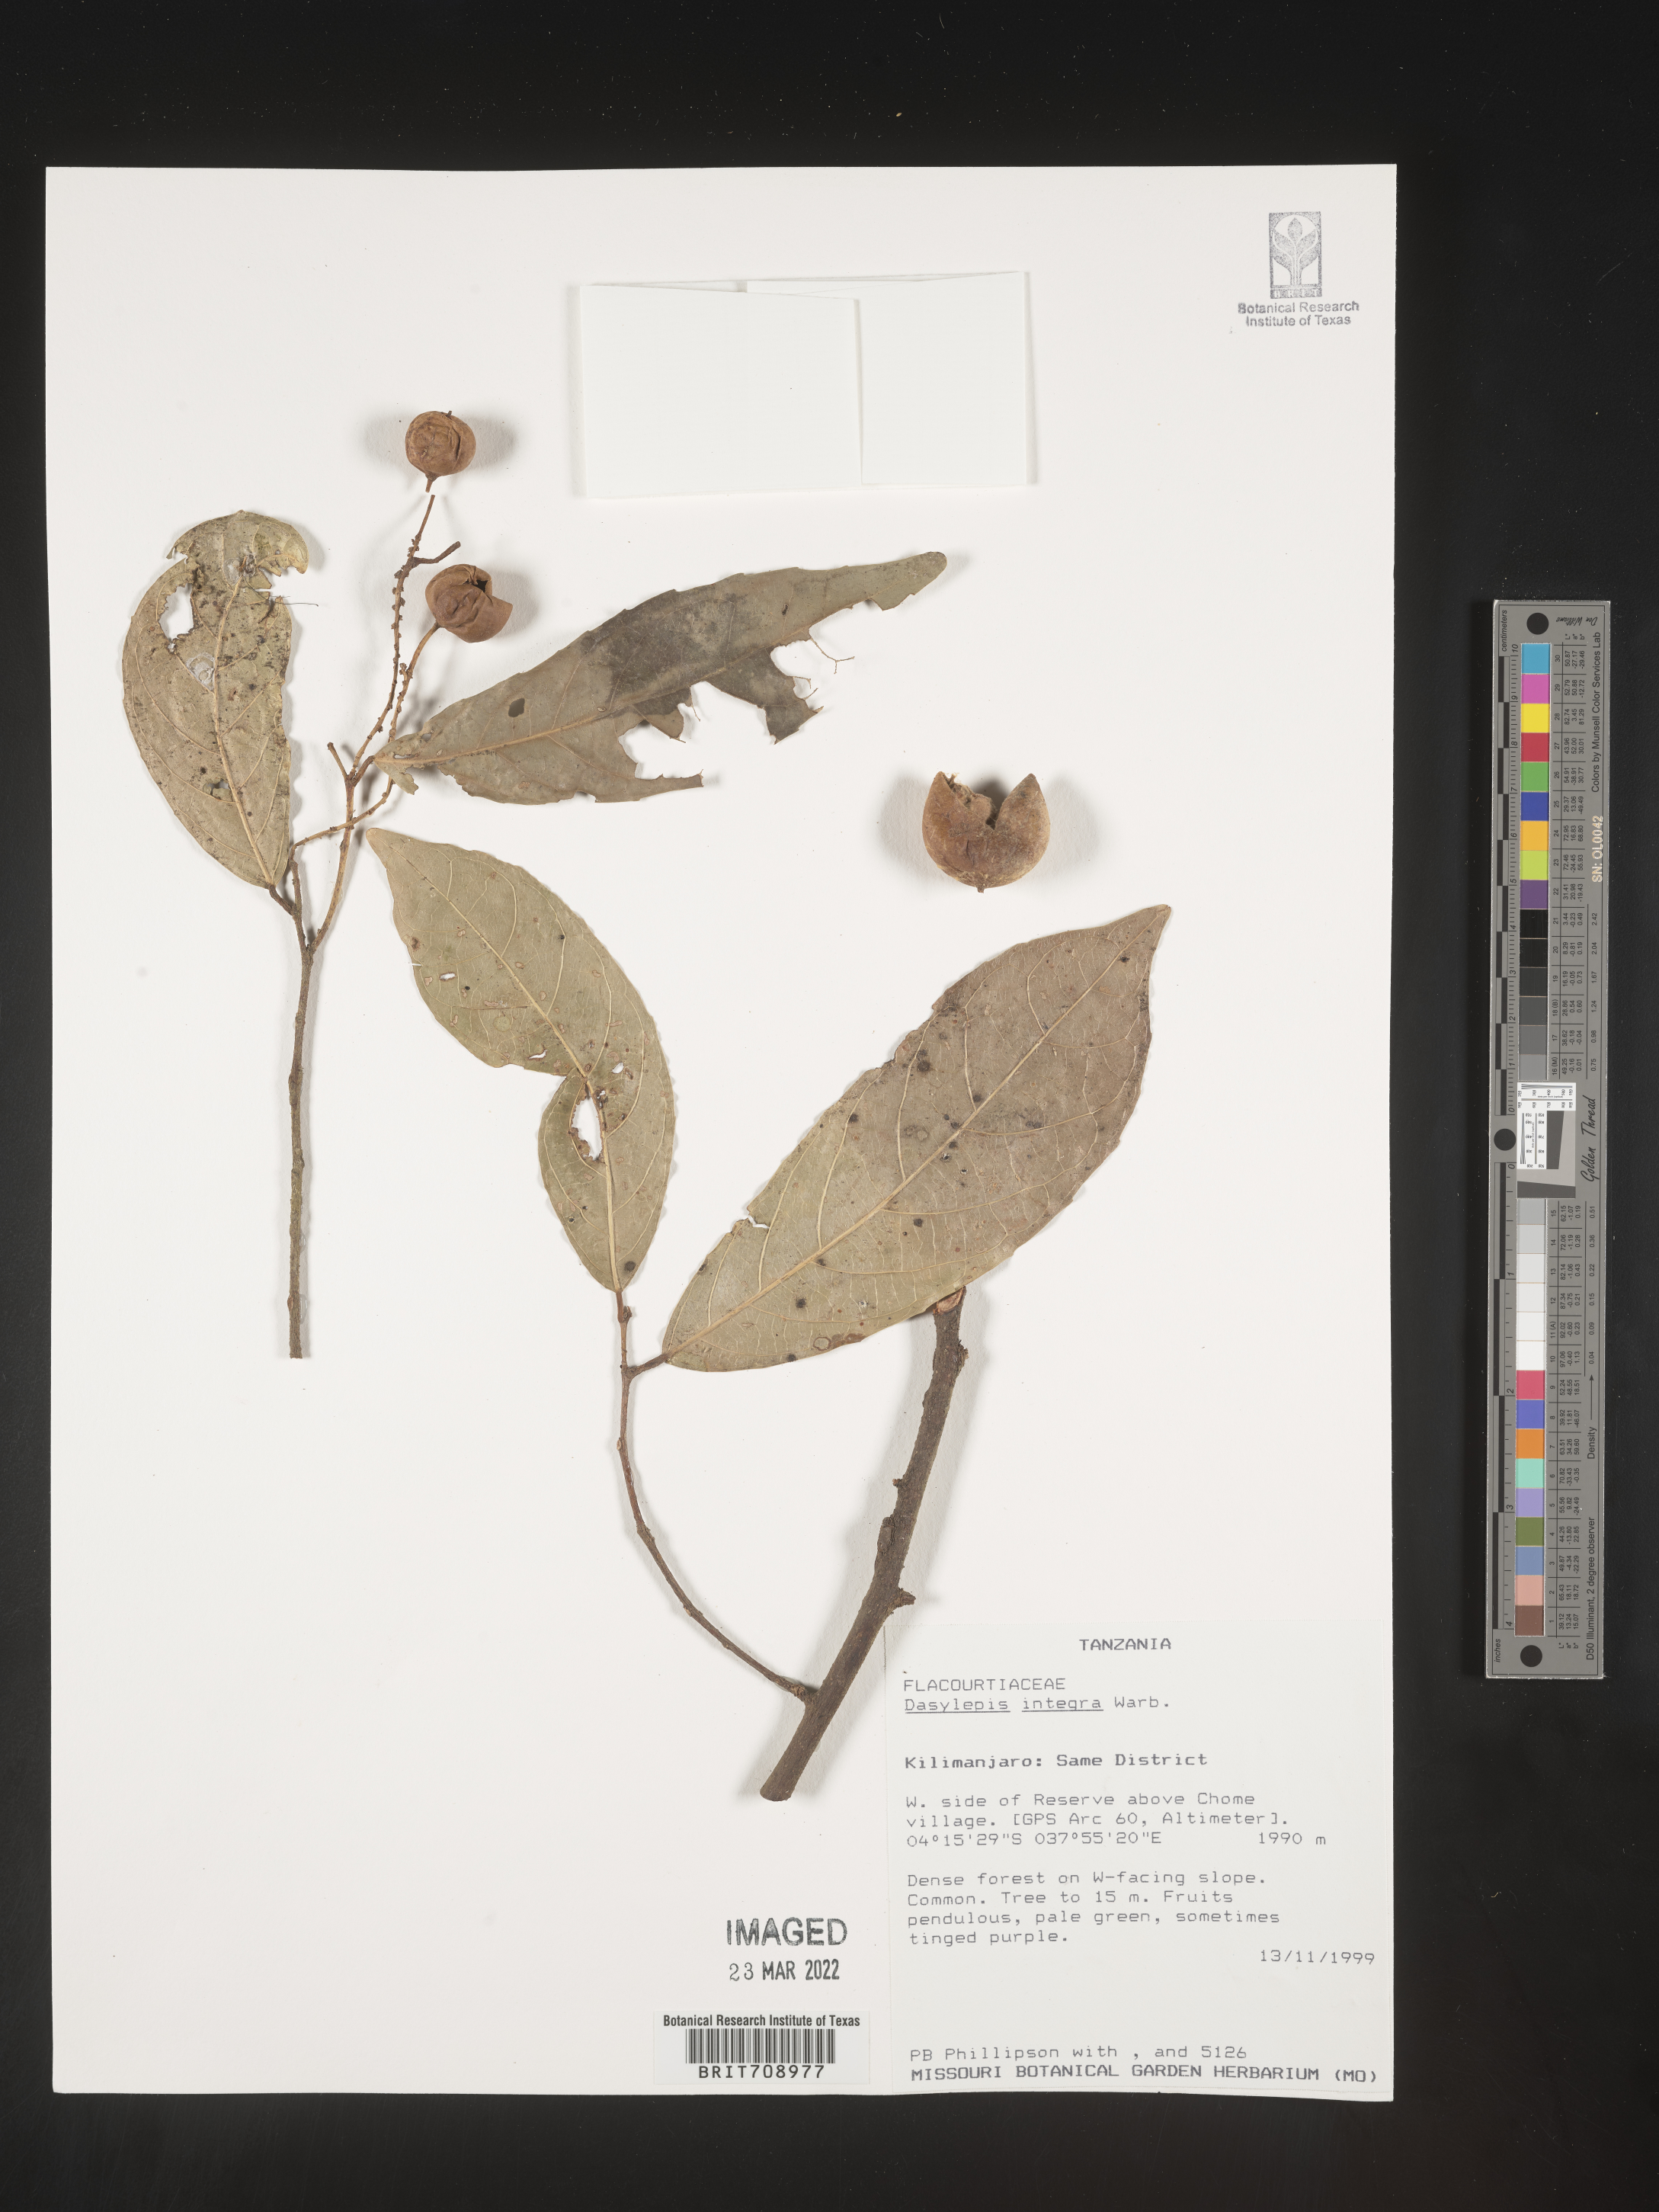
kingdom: Plantae
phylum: Tracheophyta
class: Magnoliopsida
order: Malpighiales
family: Achariaceae
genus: Dasylepis
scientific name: Dasylepis
